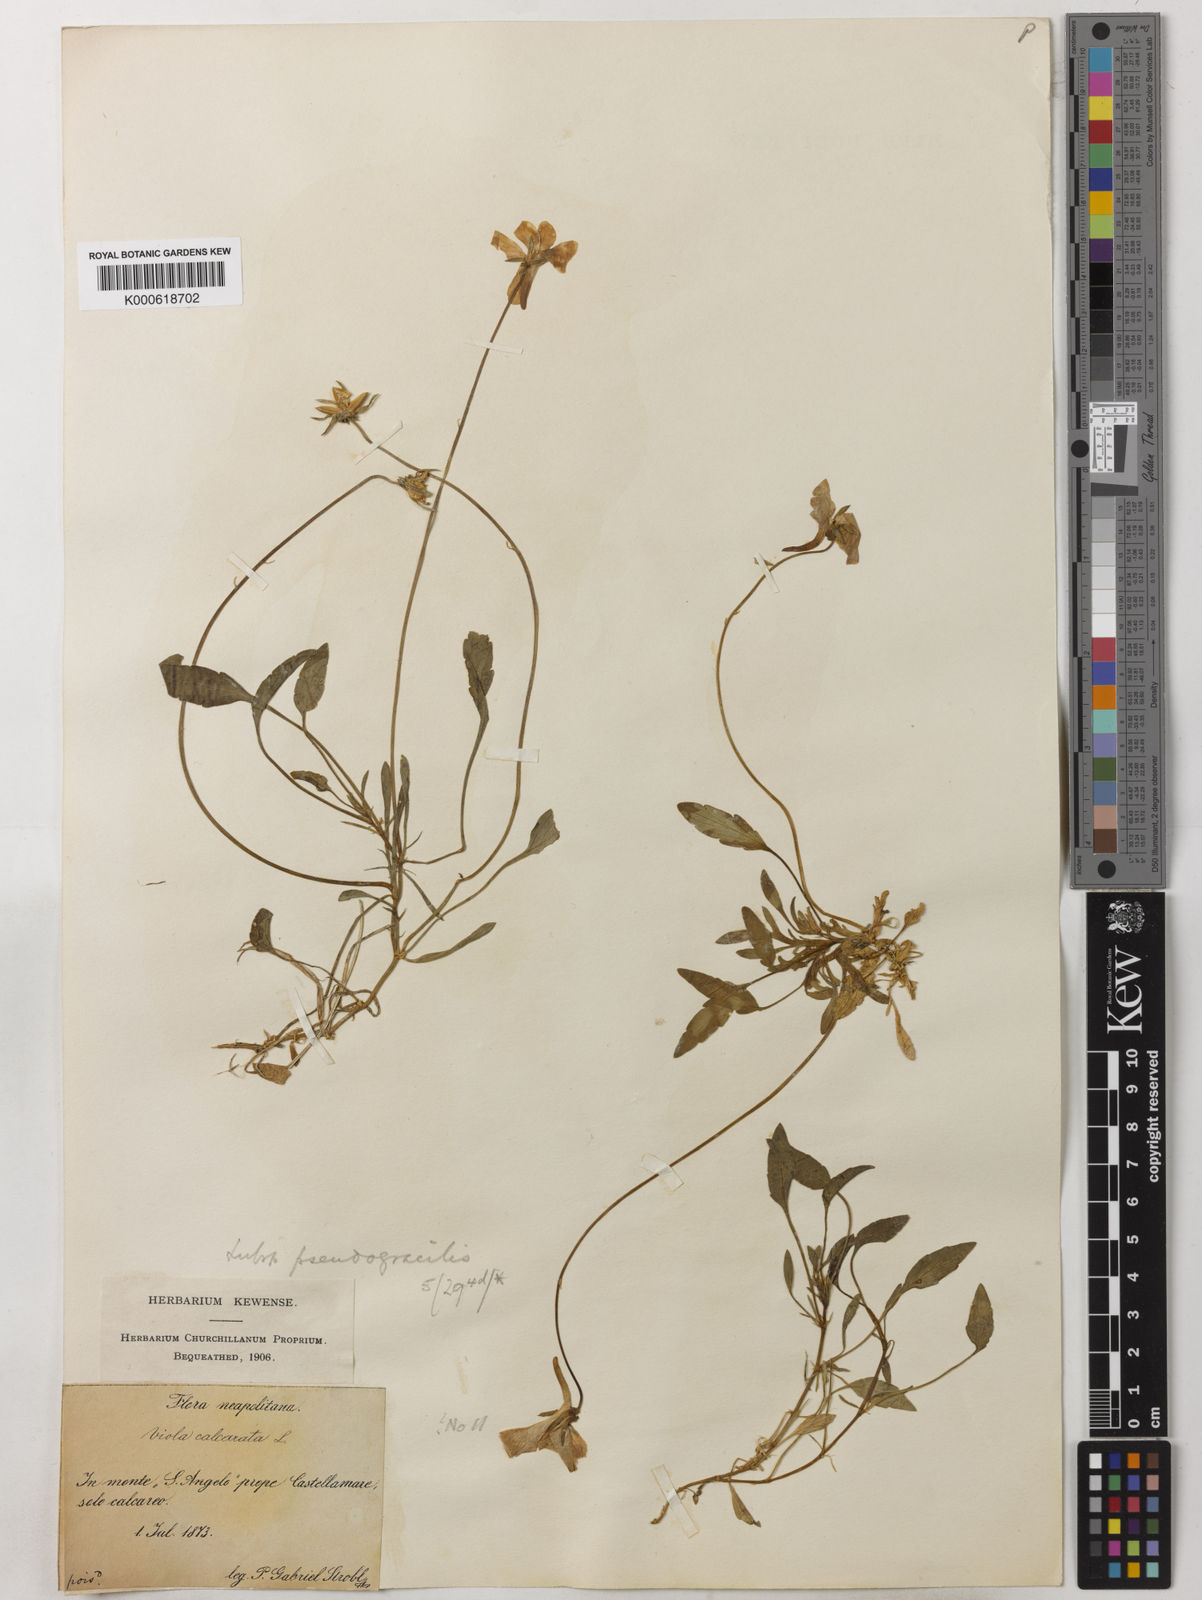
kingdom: Plantae
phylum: Tracheophyta
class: Magnoliopsida
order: Malpighiales
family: Violaceae
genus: Viola
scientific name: Viola calcarata
